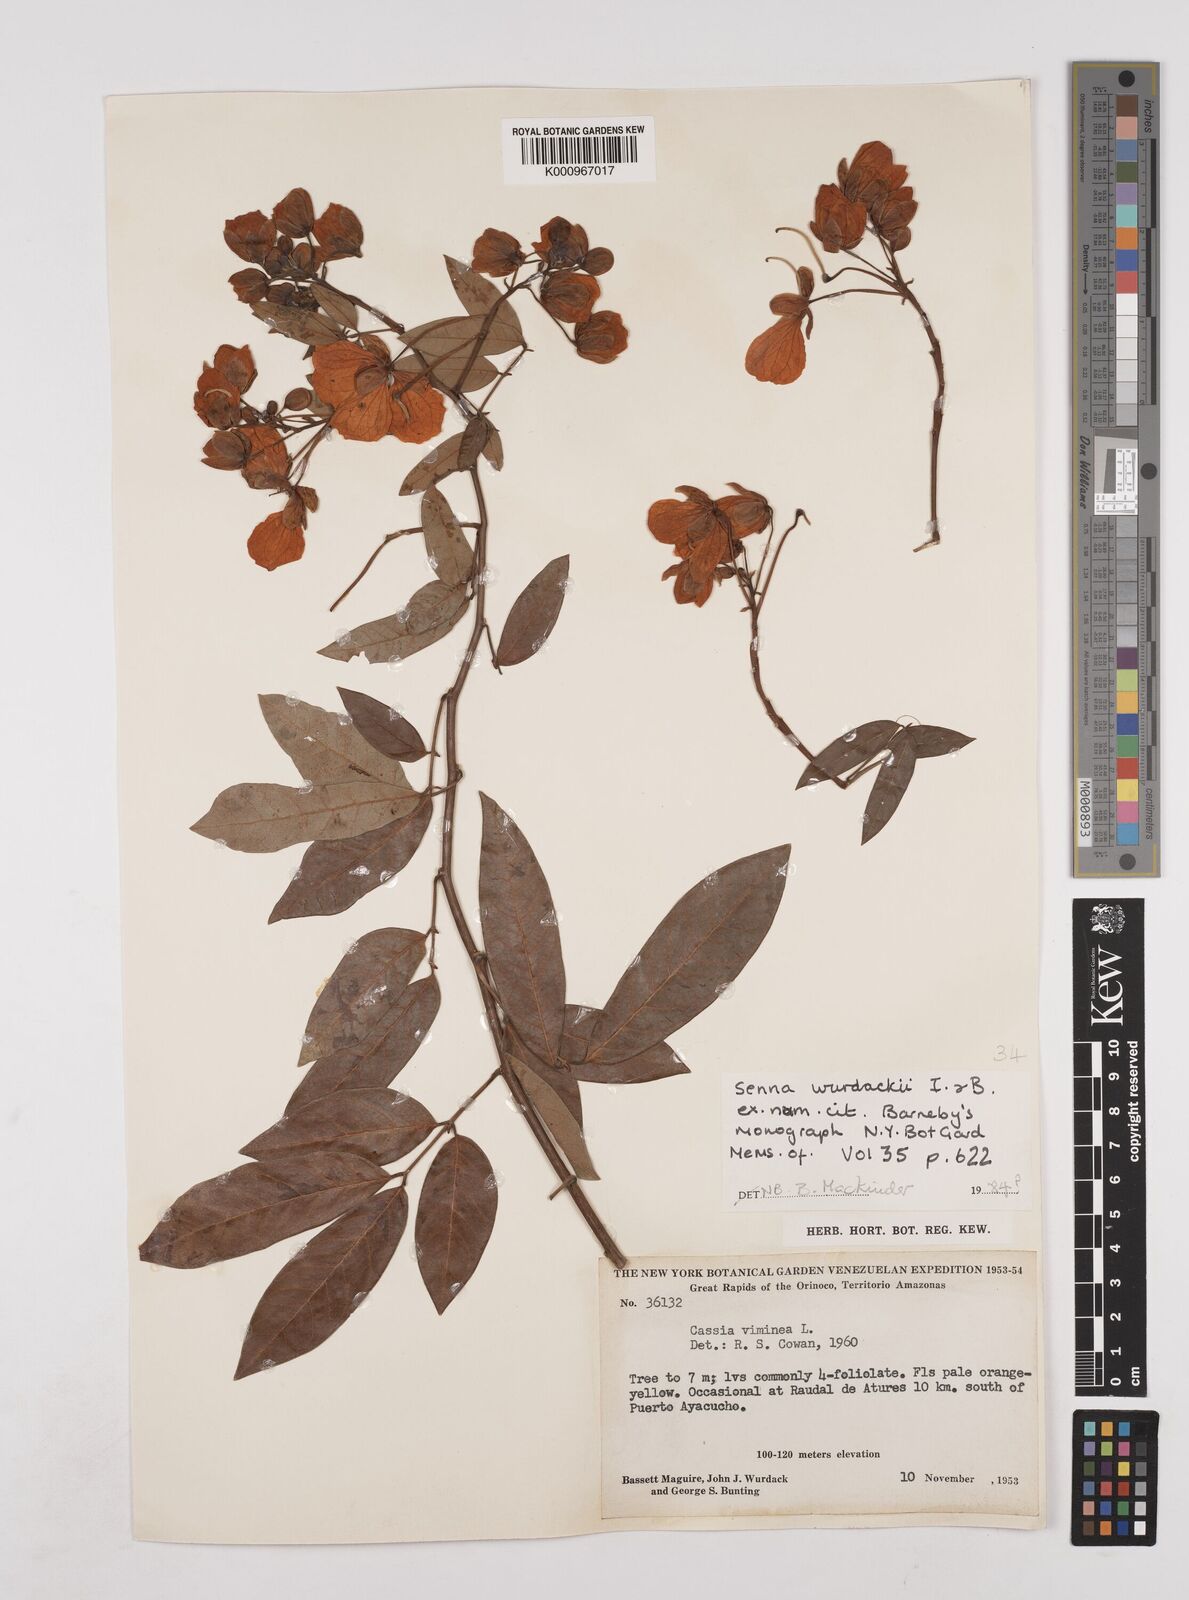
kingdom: Plantae
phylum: Tracheophyta
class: Magnoliopsida
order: Fabales
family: Fabaceae
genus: Senna
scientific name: Senna
